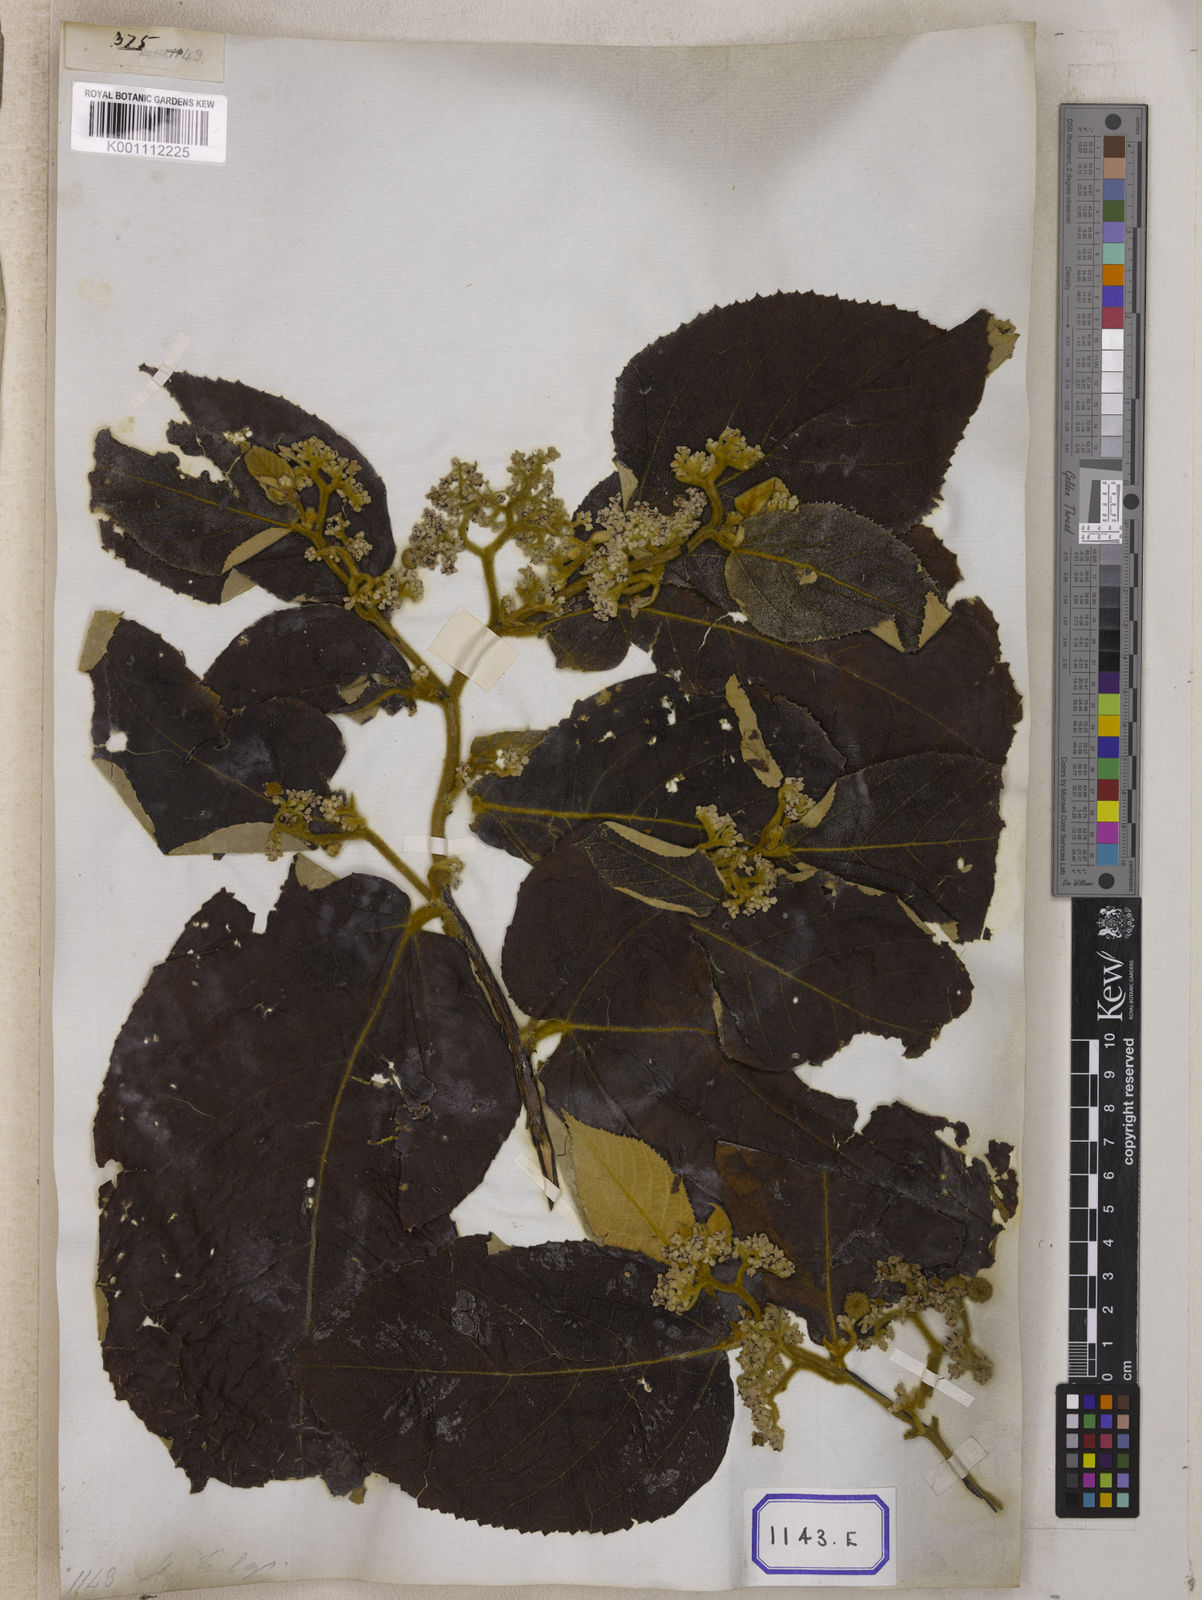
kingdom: Plantae
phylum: Tracheophyta
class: Magnoliopsida
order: Malvales
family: Malvaceae
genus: Commersonia
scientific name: Commersonia bartramia
